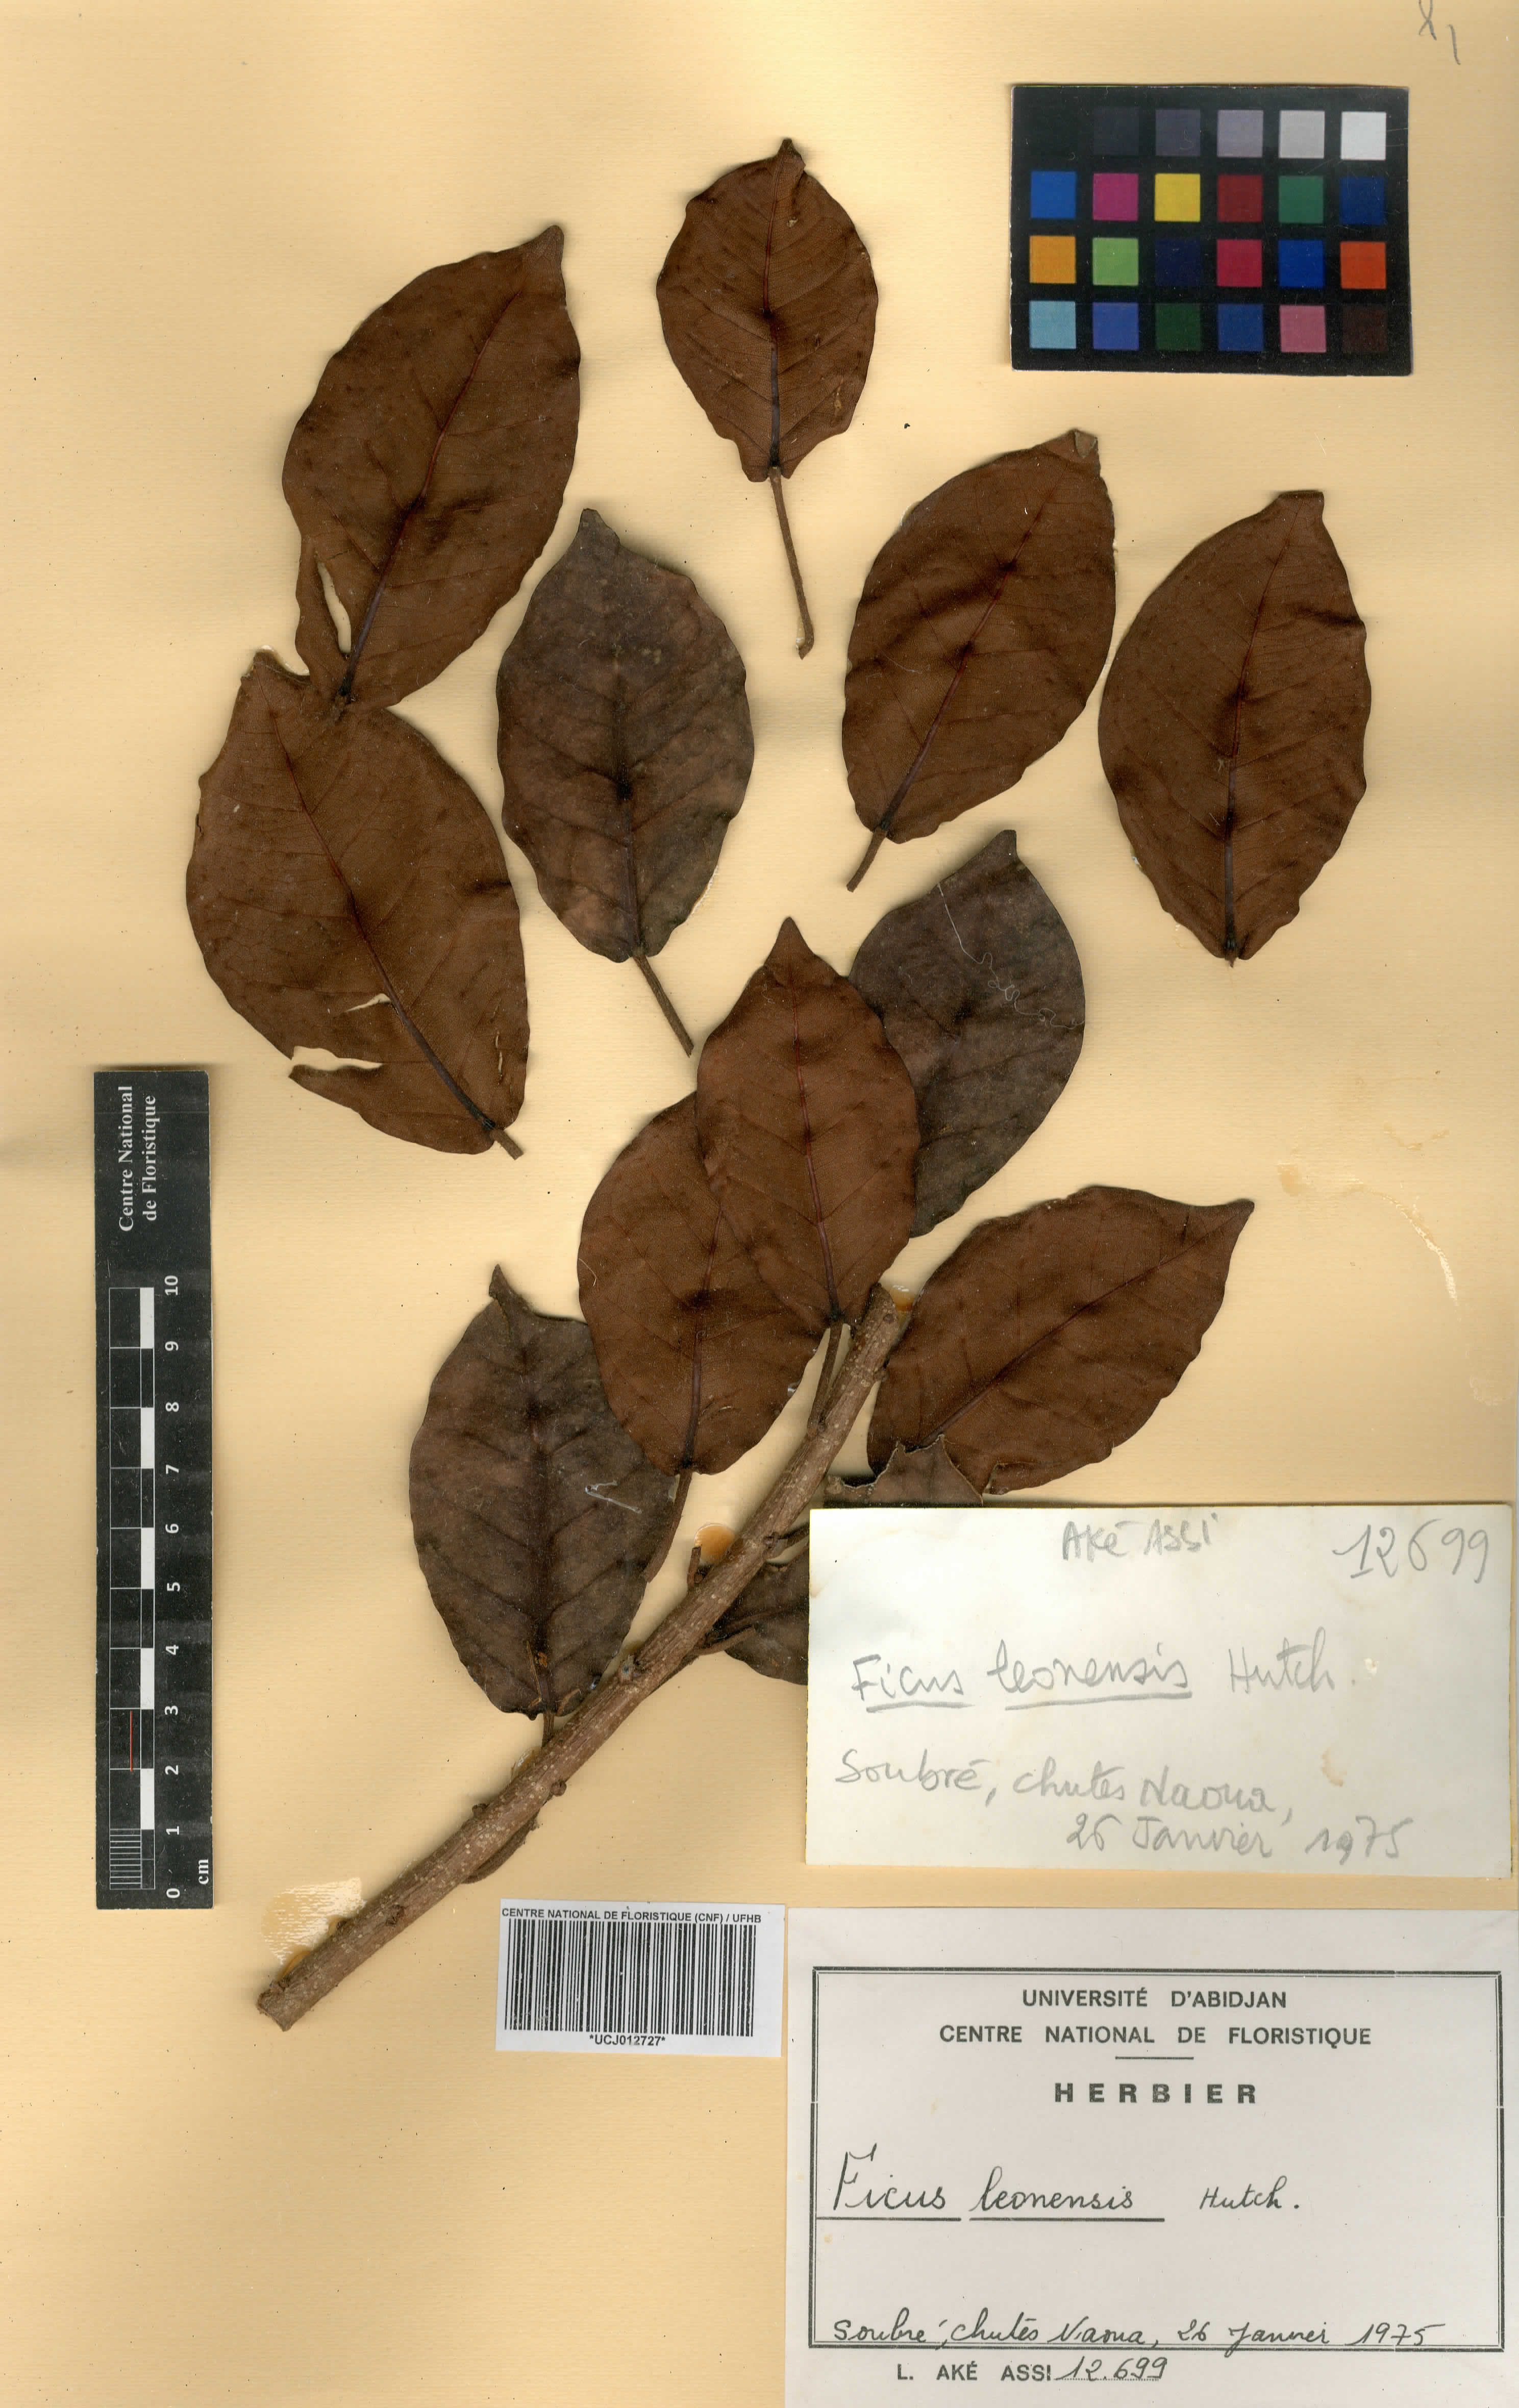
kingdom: Plantae
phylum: Tracheophyta
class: Magnoliopsida
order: Rosales
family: Moraceae
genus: Ficus
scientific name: Ficus leonensis
